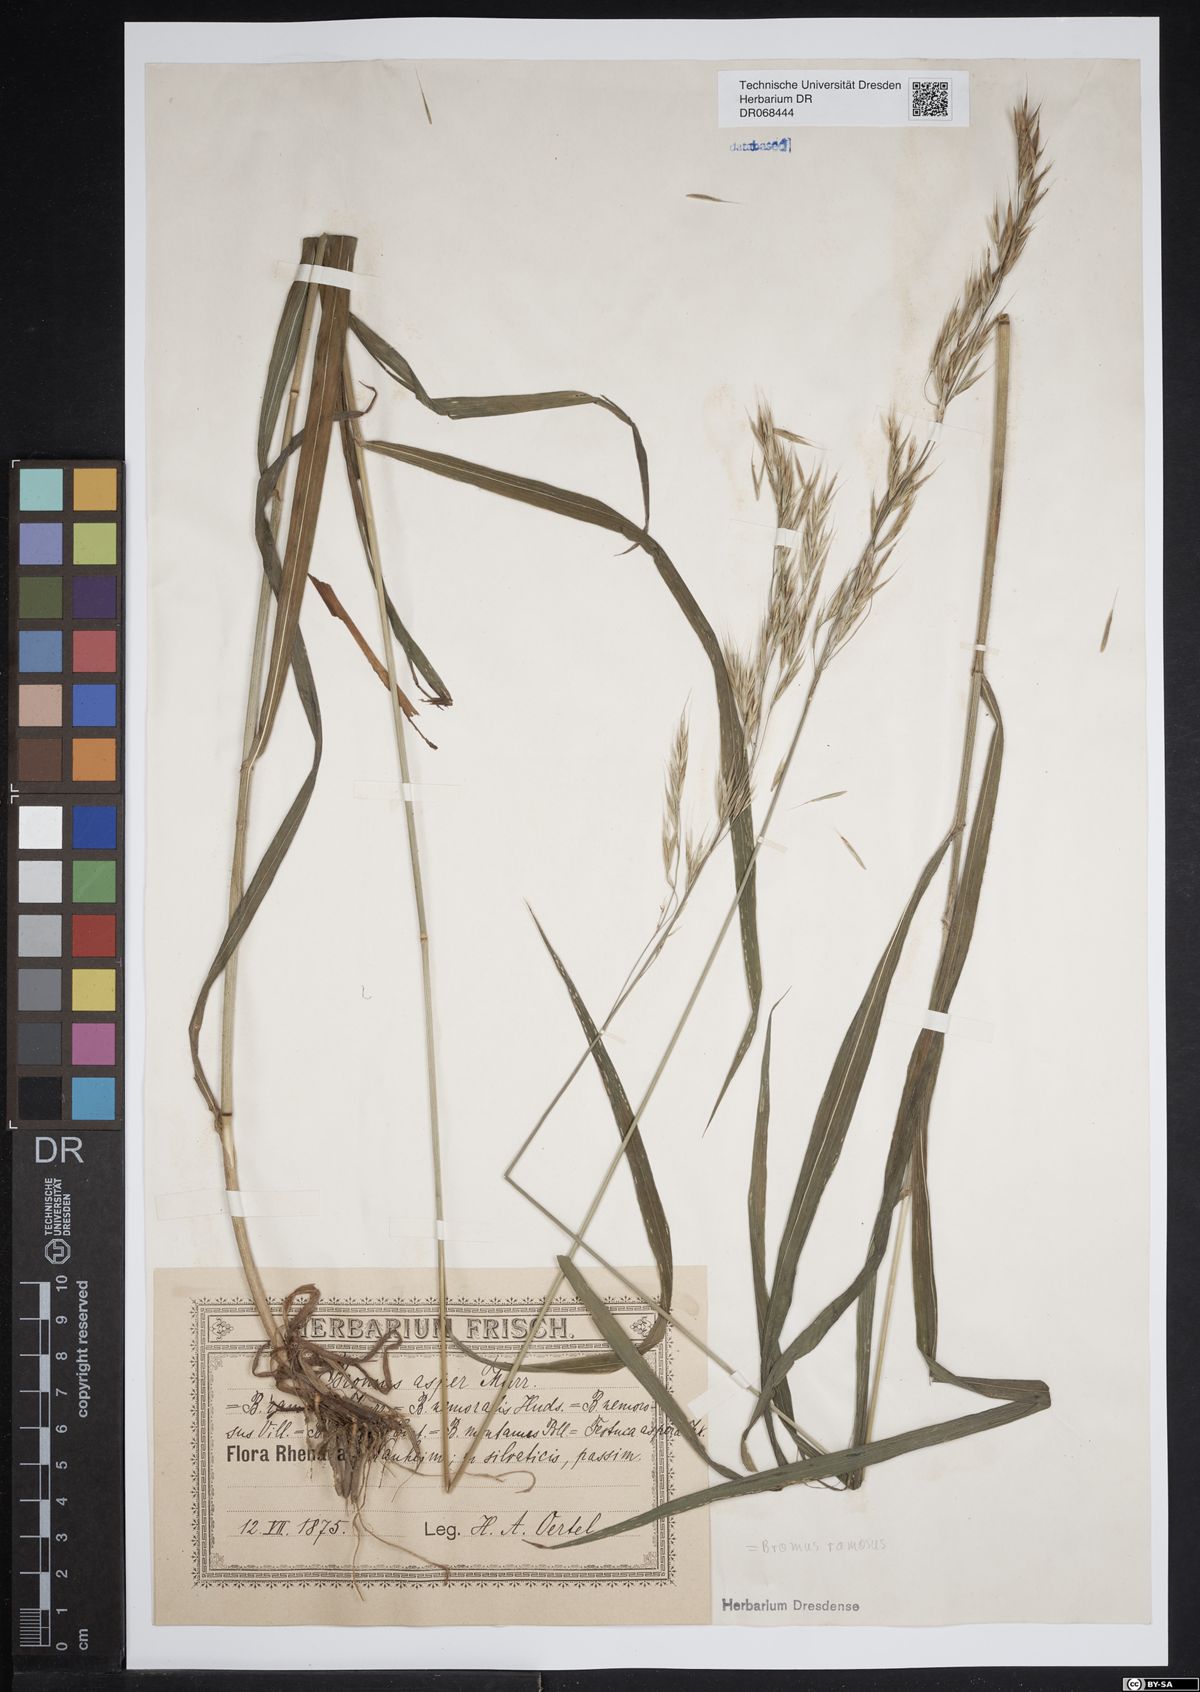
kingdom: Plantae
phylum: Tracheophyta
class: Liliopsida
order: Poales
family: Poaceae
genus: Bromus
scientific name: Bromus ramosus
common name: Hairy brome
